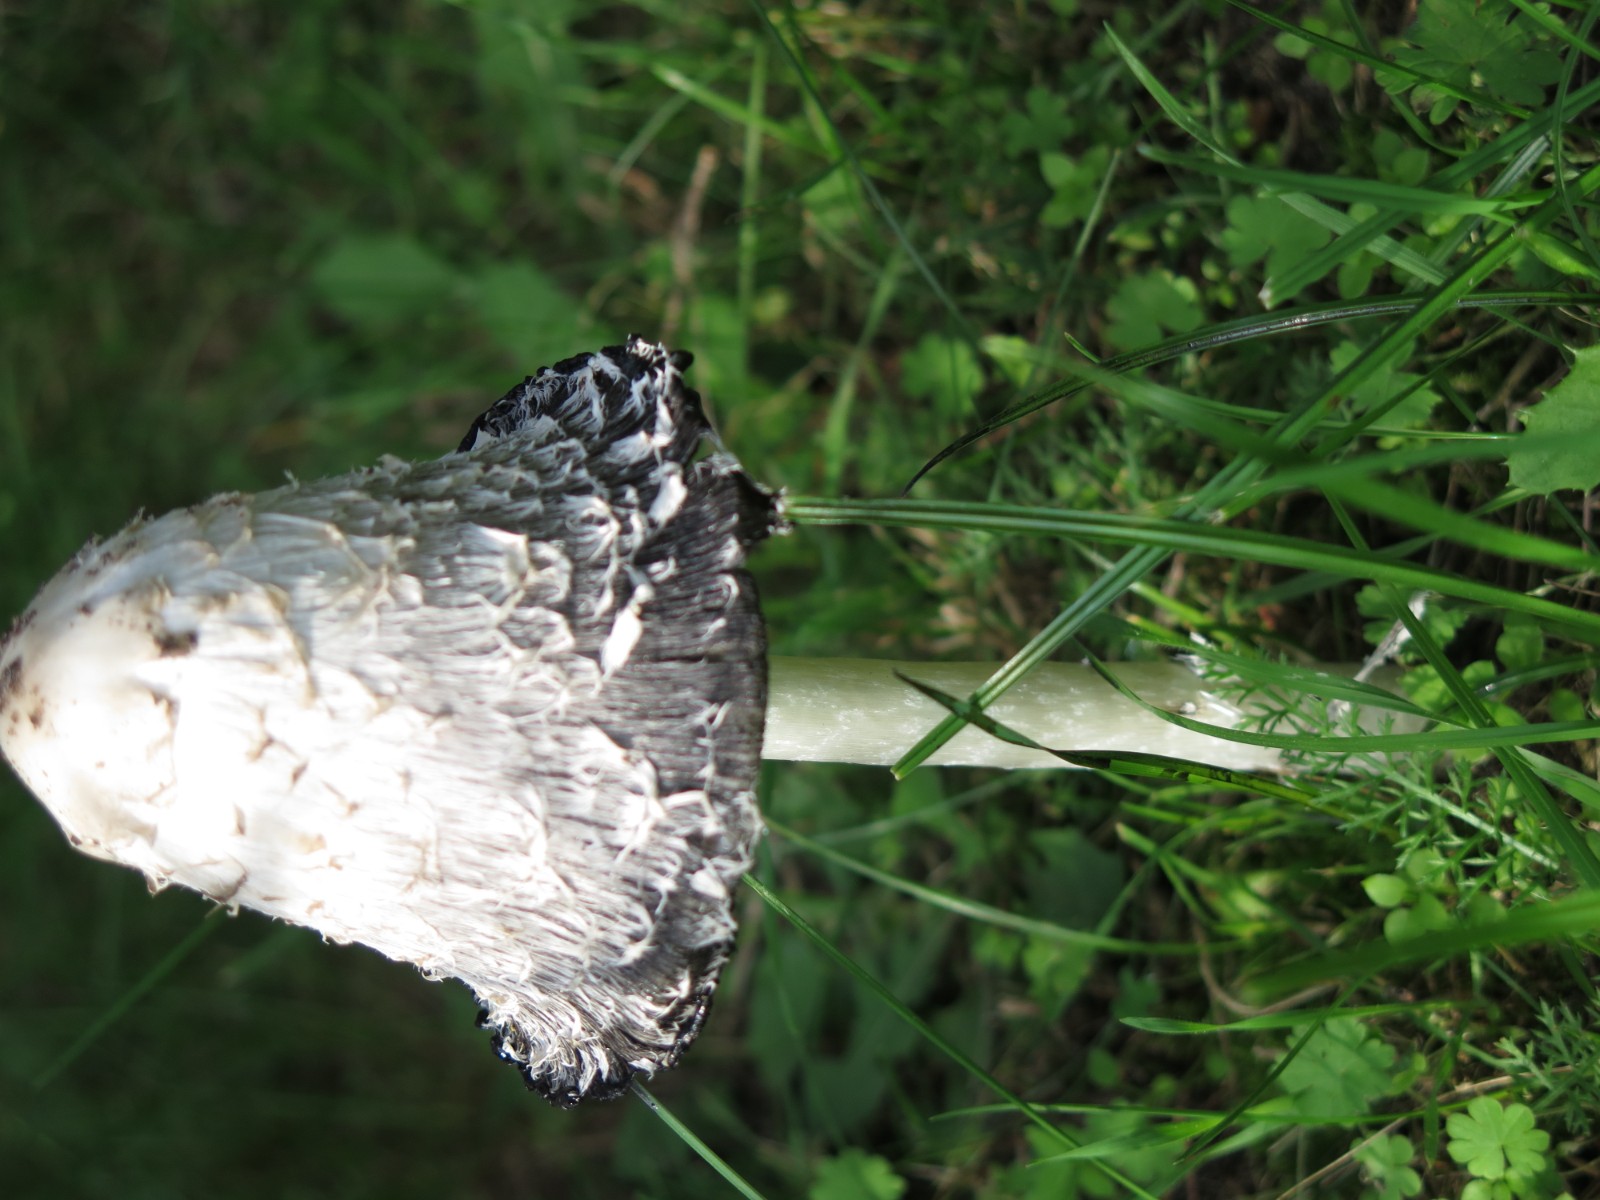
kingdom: Fungi
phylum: Basidiomycota
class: Agaricomycetes
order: Agaricales
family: Agaricaceae
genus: Coprinus
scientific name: Coprinus comatus
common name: stor parykhat
